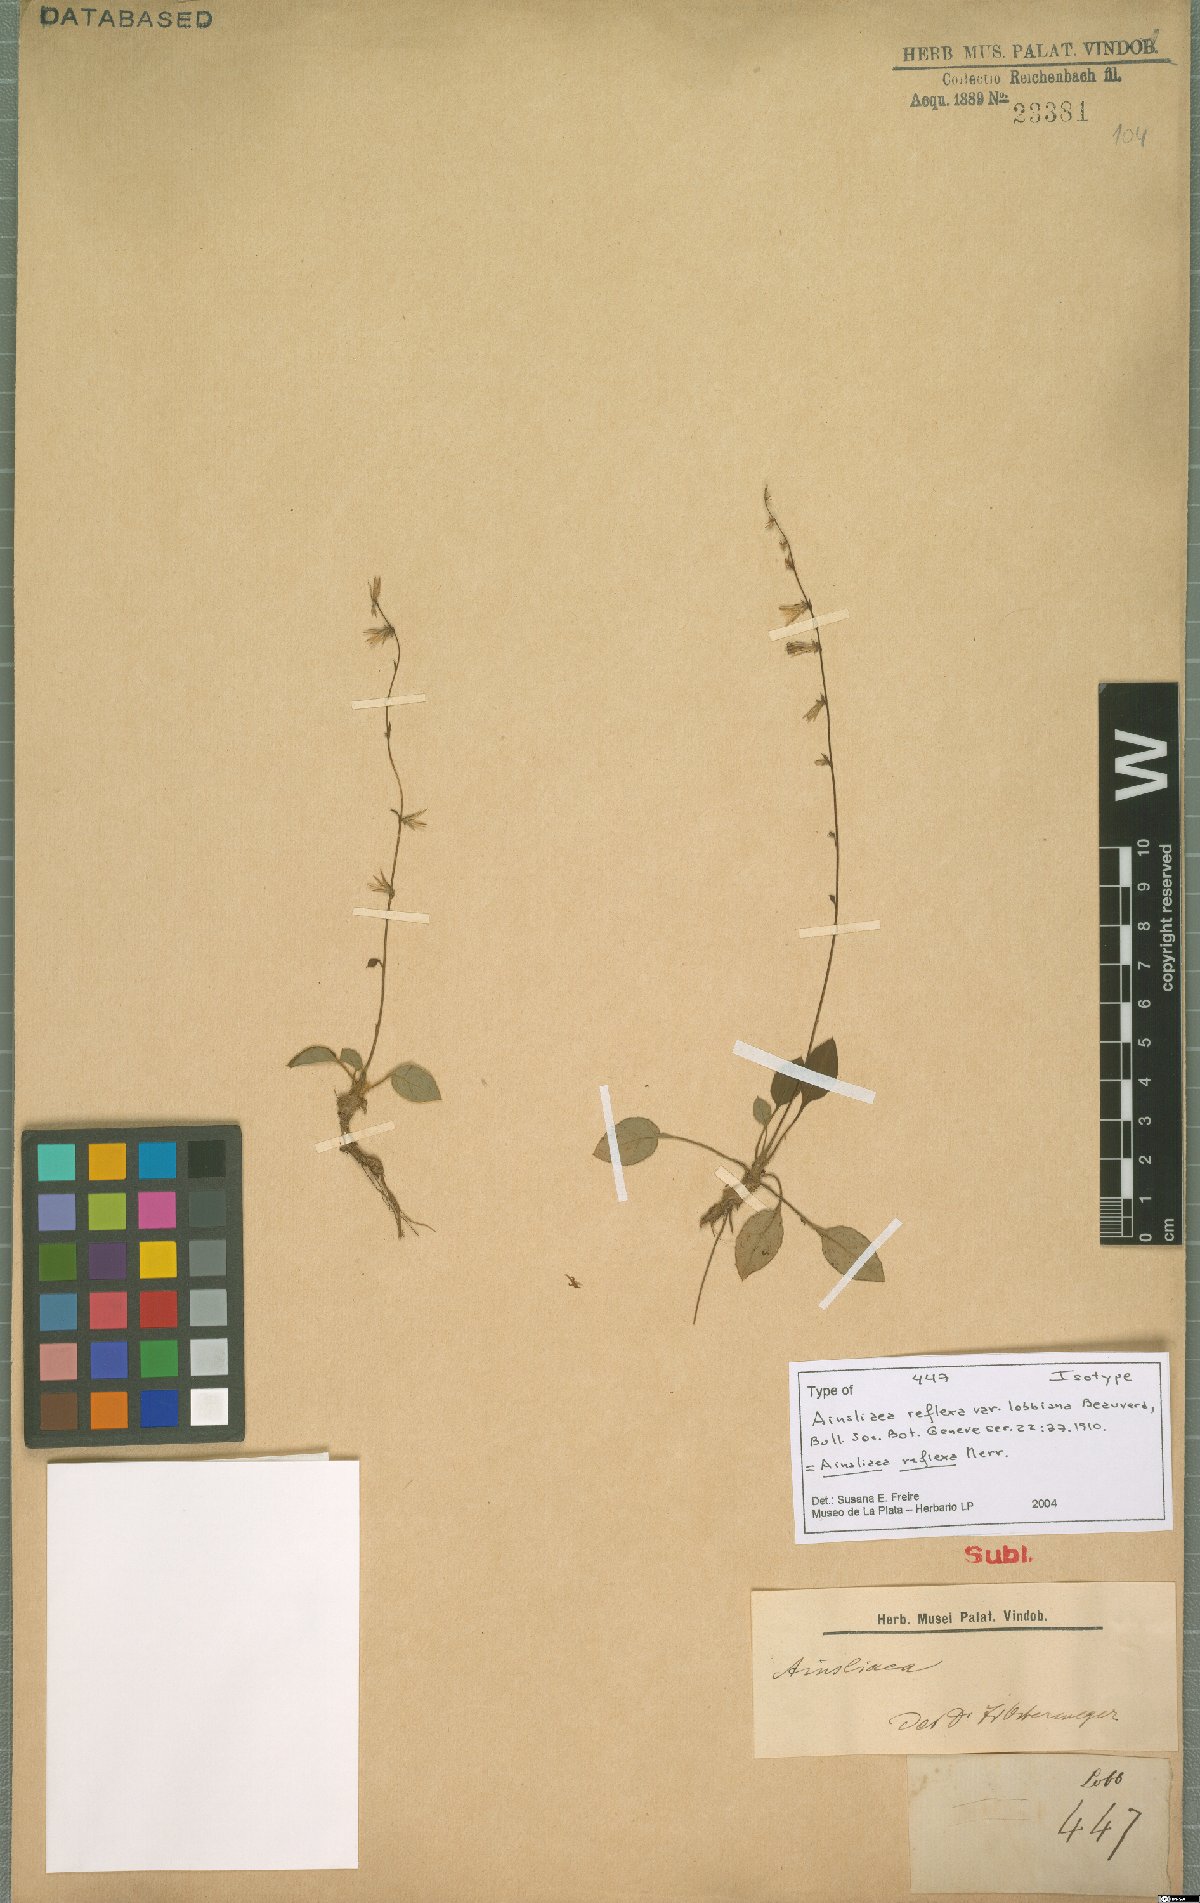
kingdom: Plantae
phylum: Tracheophyta
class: Magnoliopsida
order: Asterales
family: Asteraceae
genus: Ainsliaea
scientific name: Ainsliaea reflexa
